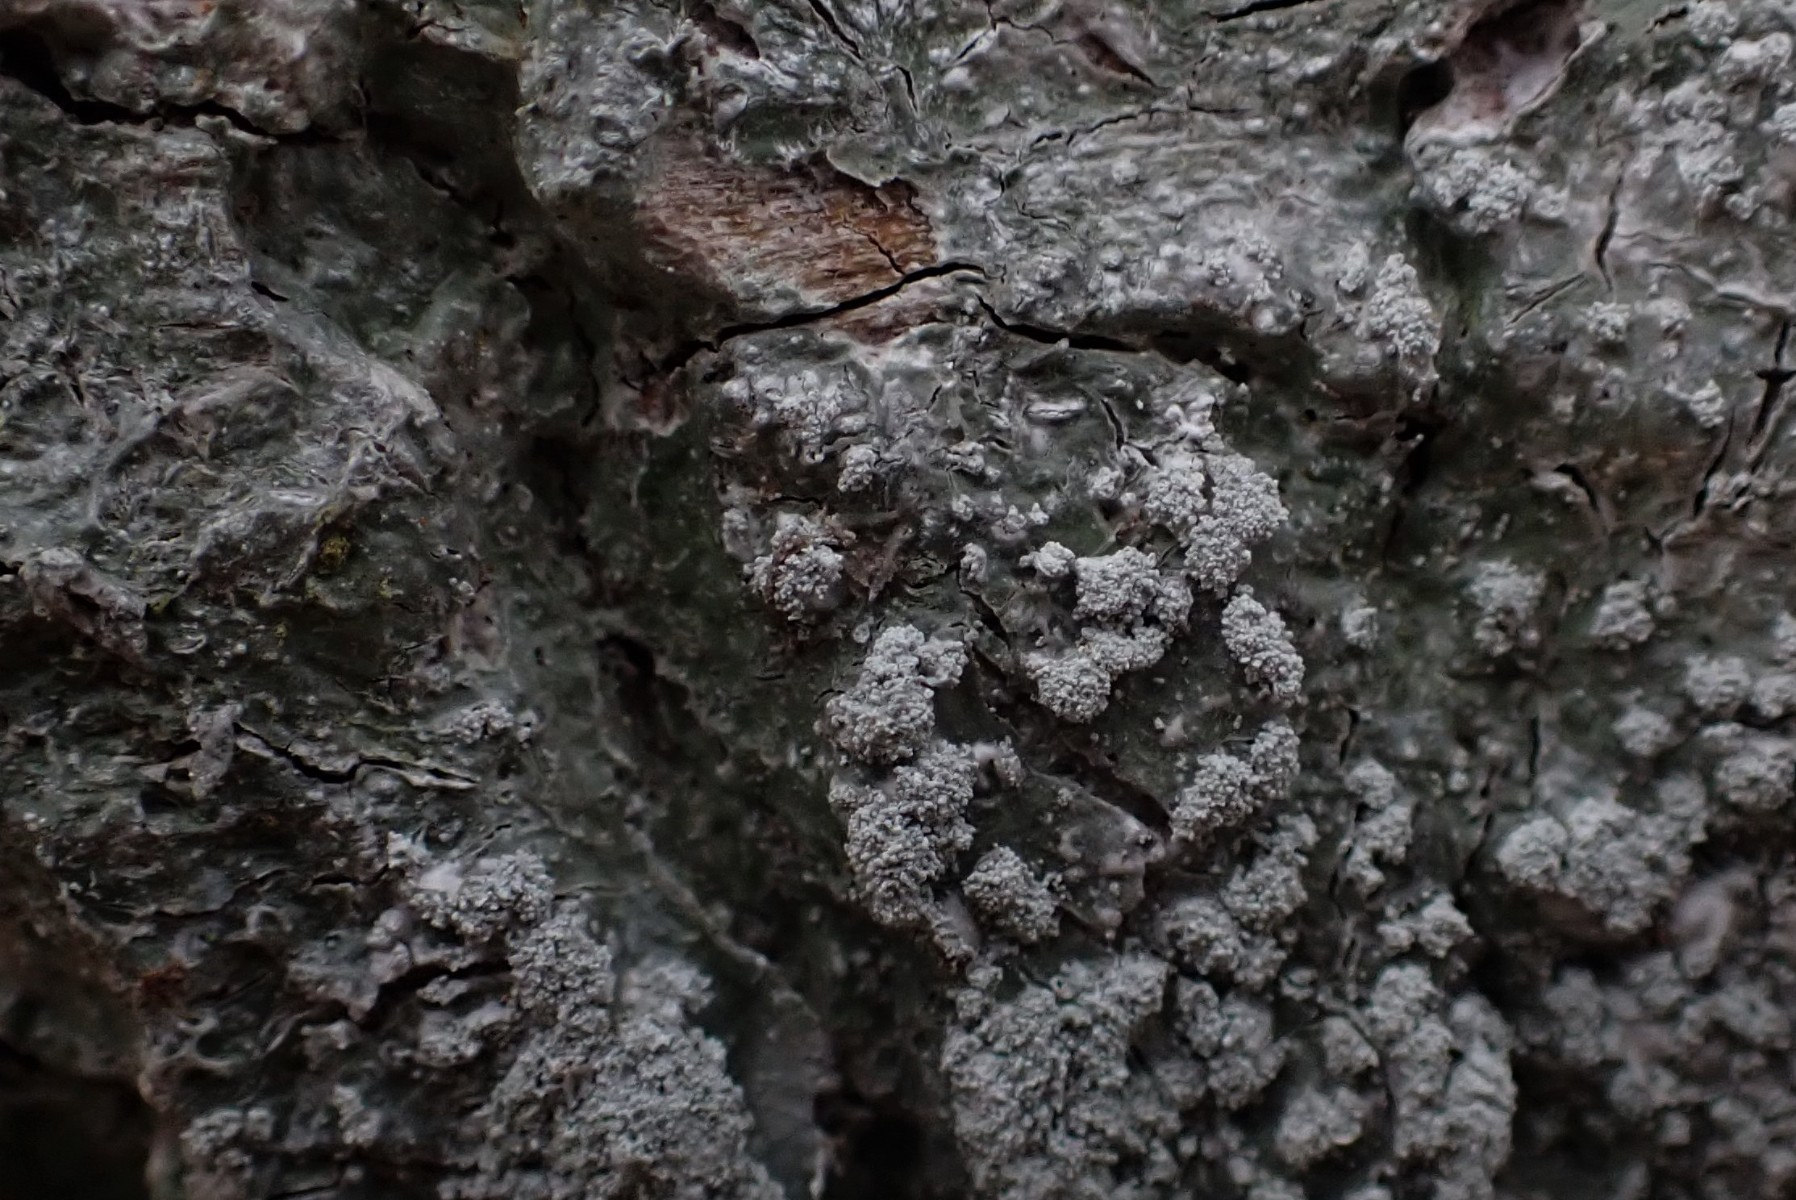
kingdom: Fungi
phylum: Ascomycota
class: Lecanoromycetes
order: Pertusariales
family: Pertusariaceae
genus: Lepra
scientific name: Lepra amara
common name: bitter prikvortelav
